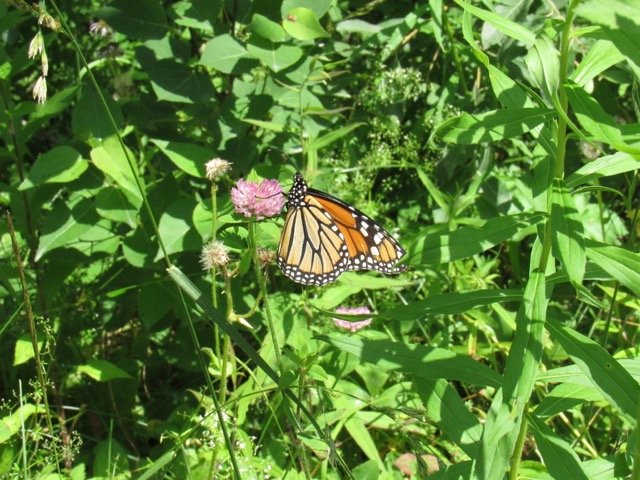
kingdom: Animalia
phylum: Arthropoda
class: Insecta
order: Lepidoptera
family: Nymphalidae
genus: Danaus
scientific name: Danaus plexippus
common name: Monarch
